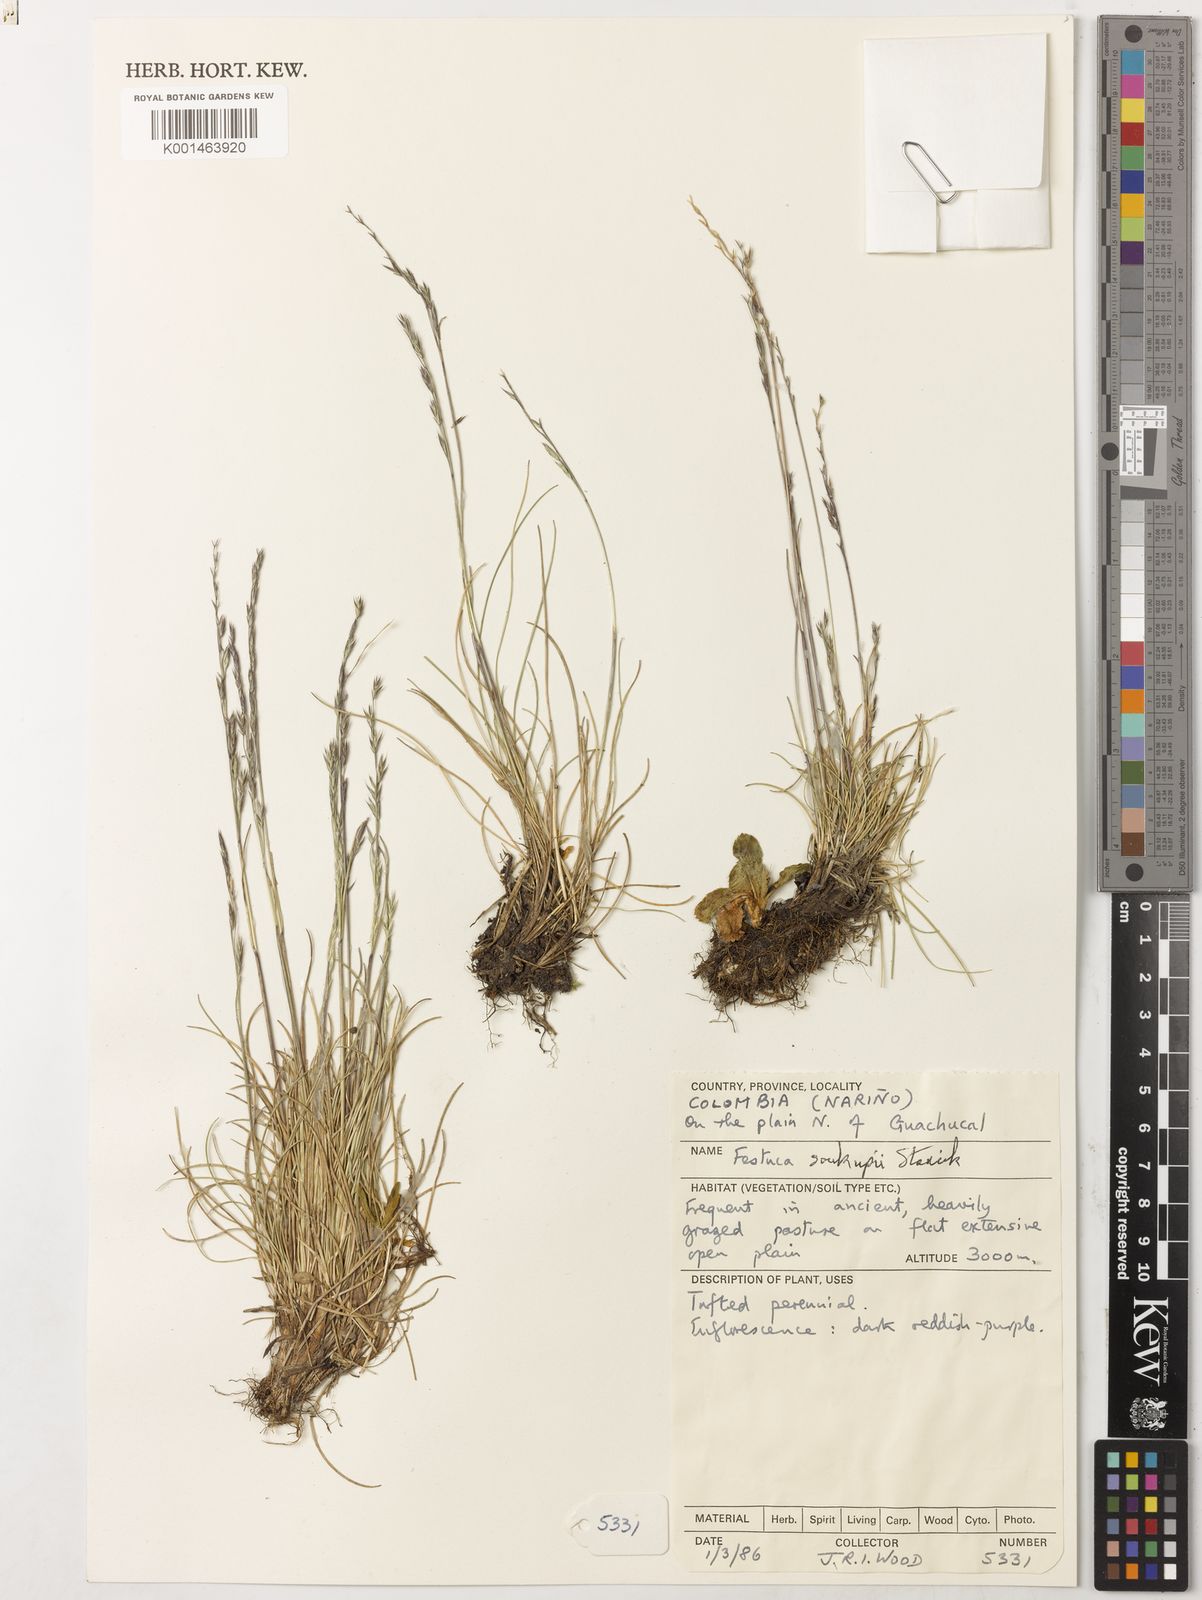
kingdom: Plantae
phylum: Tracheophyta
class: Liliopsida
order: Poales
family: Poaceae
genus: Festuca
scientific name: Festuca
